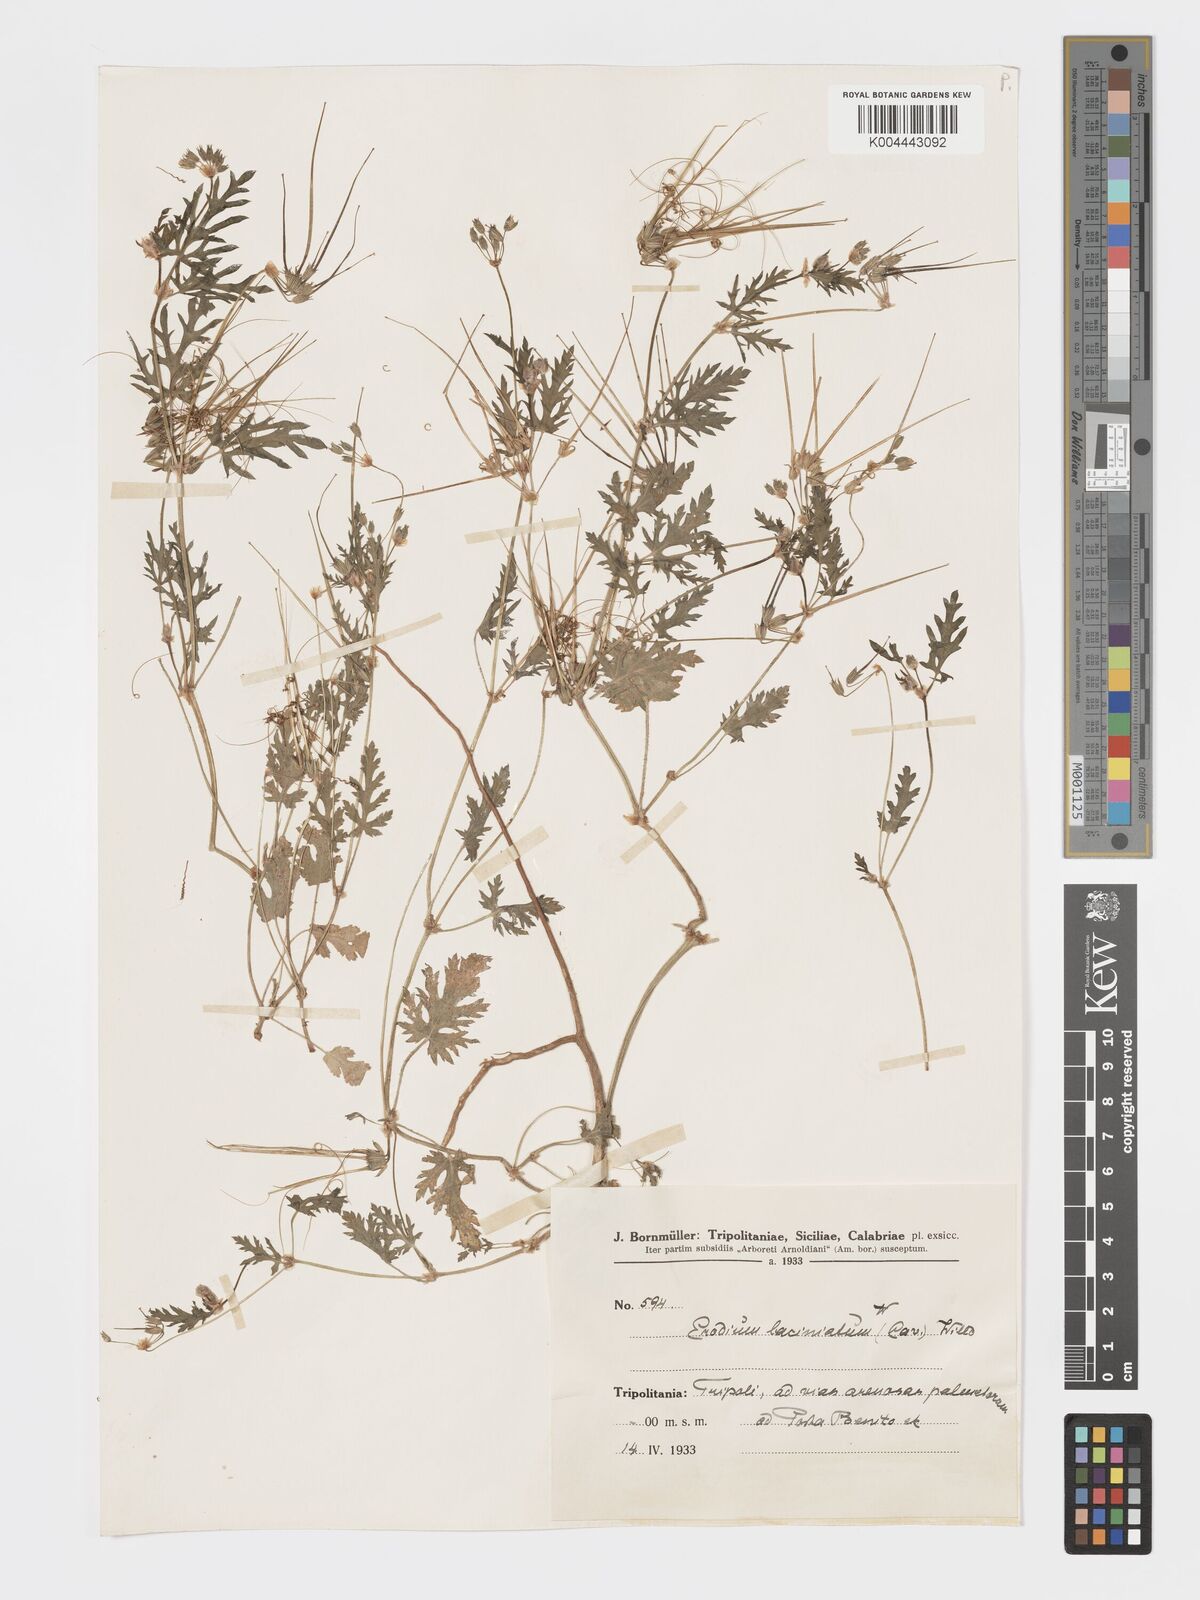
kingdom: Plantae
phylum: Tracheophyta
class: Magnoliopsida
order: Geraniales
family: Geraniaceae
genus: Erodium
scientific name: Erodium laciniatum
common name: Cutleaf stork's bill
